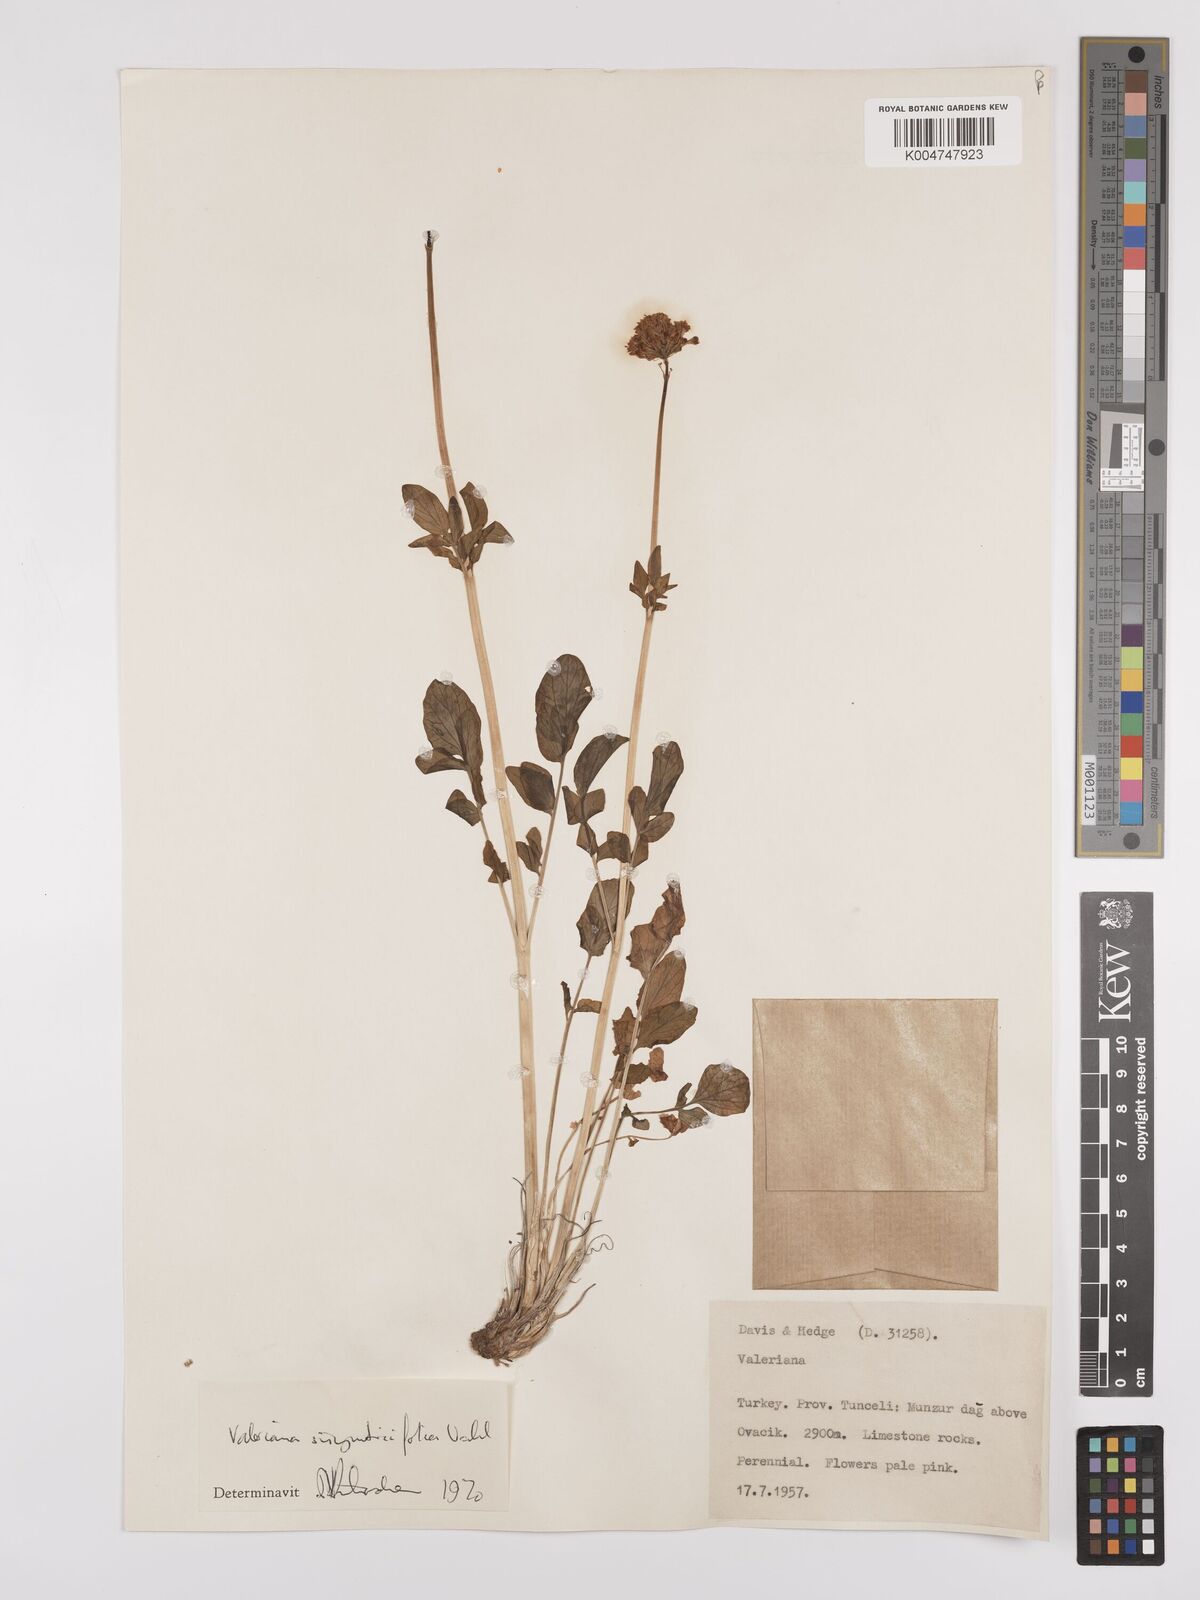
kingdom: Plantae
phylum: Tracheophyta
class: Magnoliopsida
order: Dipsacales
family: Caprifoliaceae
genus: Valeriana
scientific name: Valeriana
